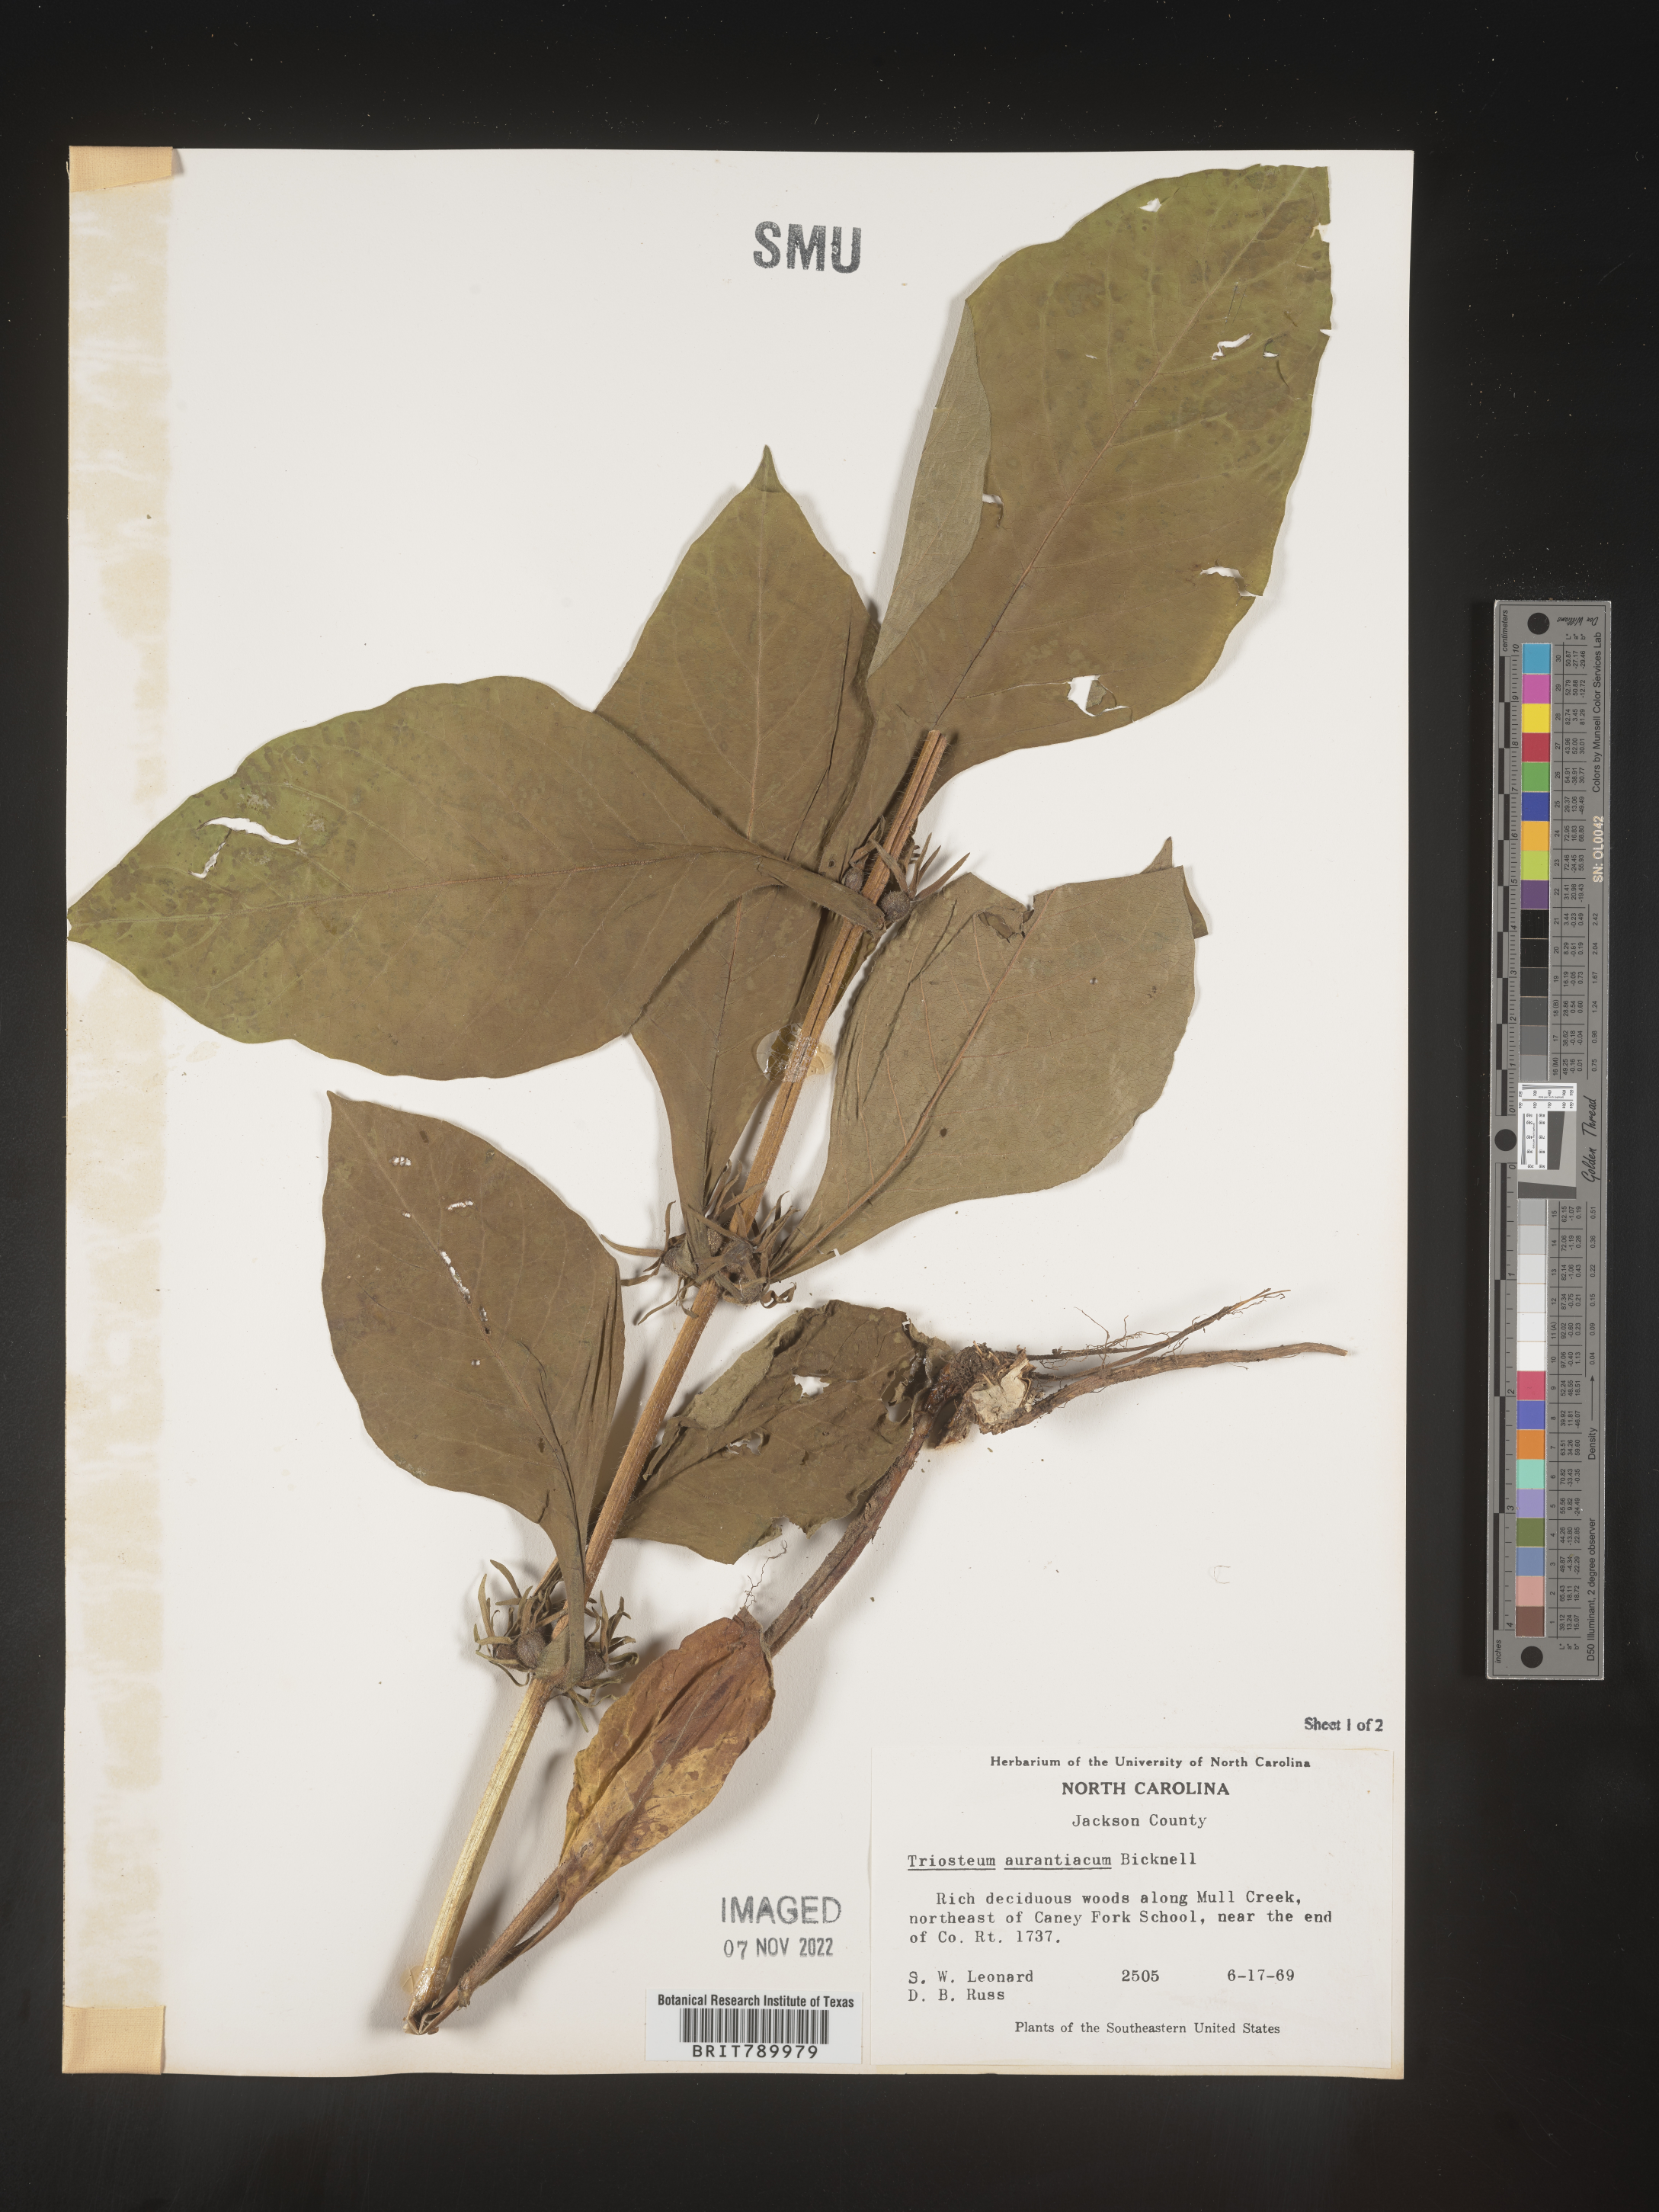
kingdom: Plantae
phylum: Tracheophyta
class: Magnoliopsida
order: Dipsacales
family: Caprifoliaceae
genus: Triosteum
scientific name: Triosteum aurantiacum
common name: Coffee tinker's-weed
